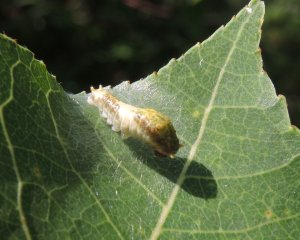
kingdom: Animalia
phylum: Arthropoda
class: Insecta
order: Lepidoptera
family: Papilionidae
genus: Pterourus
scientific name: Pterourus canadensis
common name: Canadian Tiger Swallowtail
